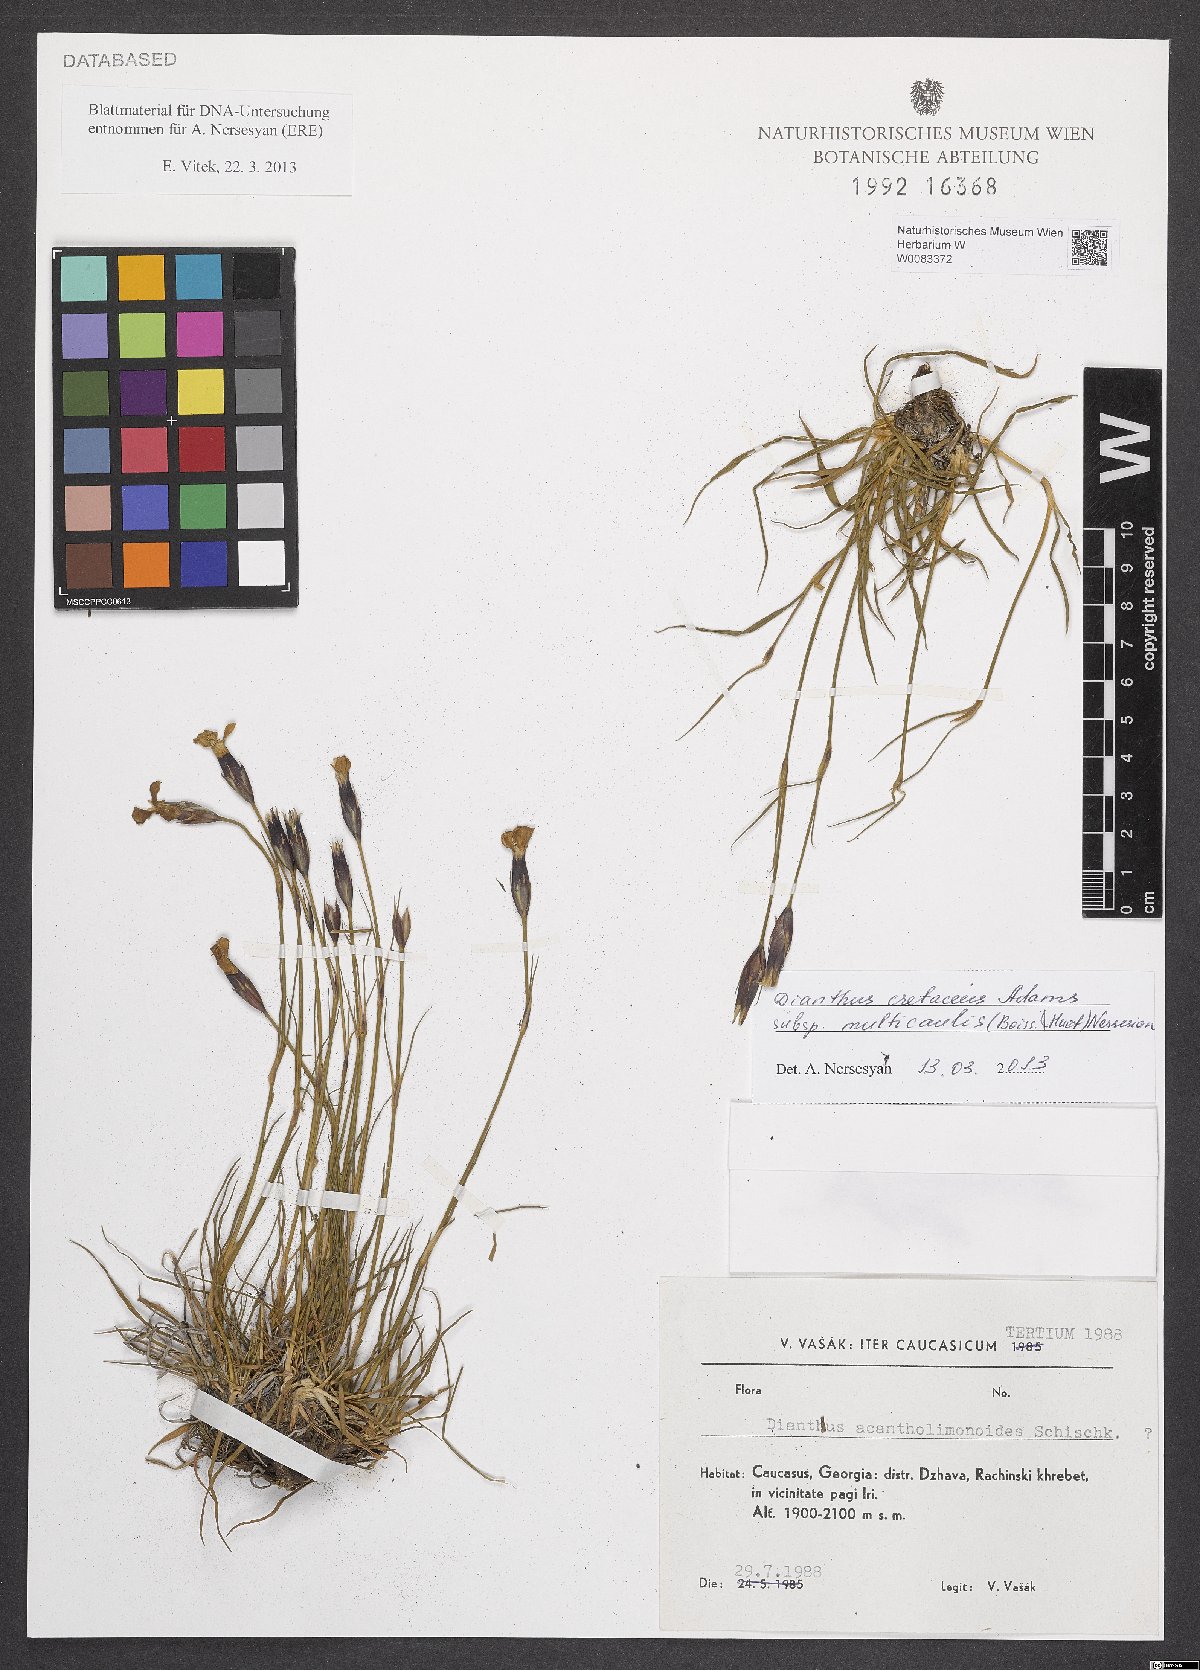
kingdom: Plantae
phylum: Tracheophyta
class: Magnoliopsida
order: Caryophyllales
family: Caryophyllaceae
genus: Dianthus
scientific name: Dianthus cretaceus
